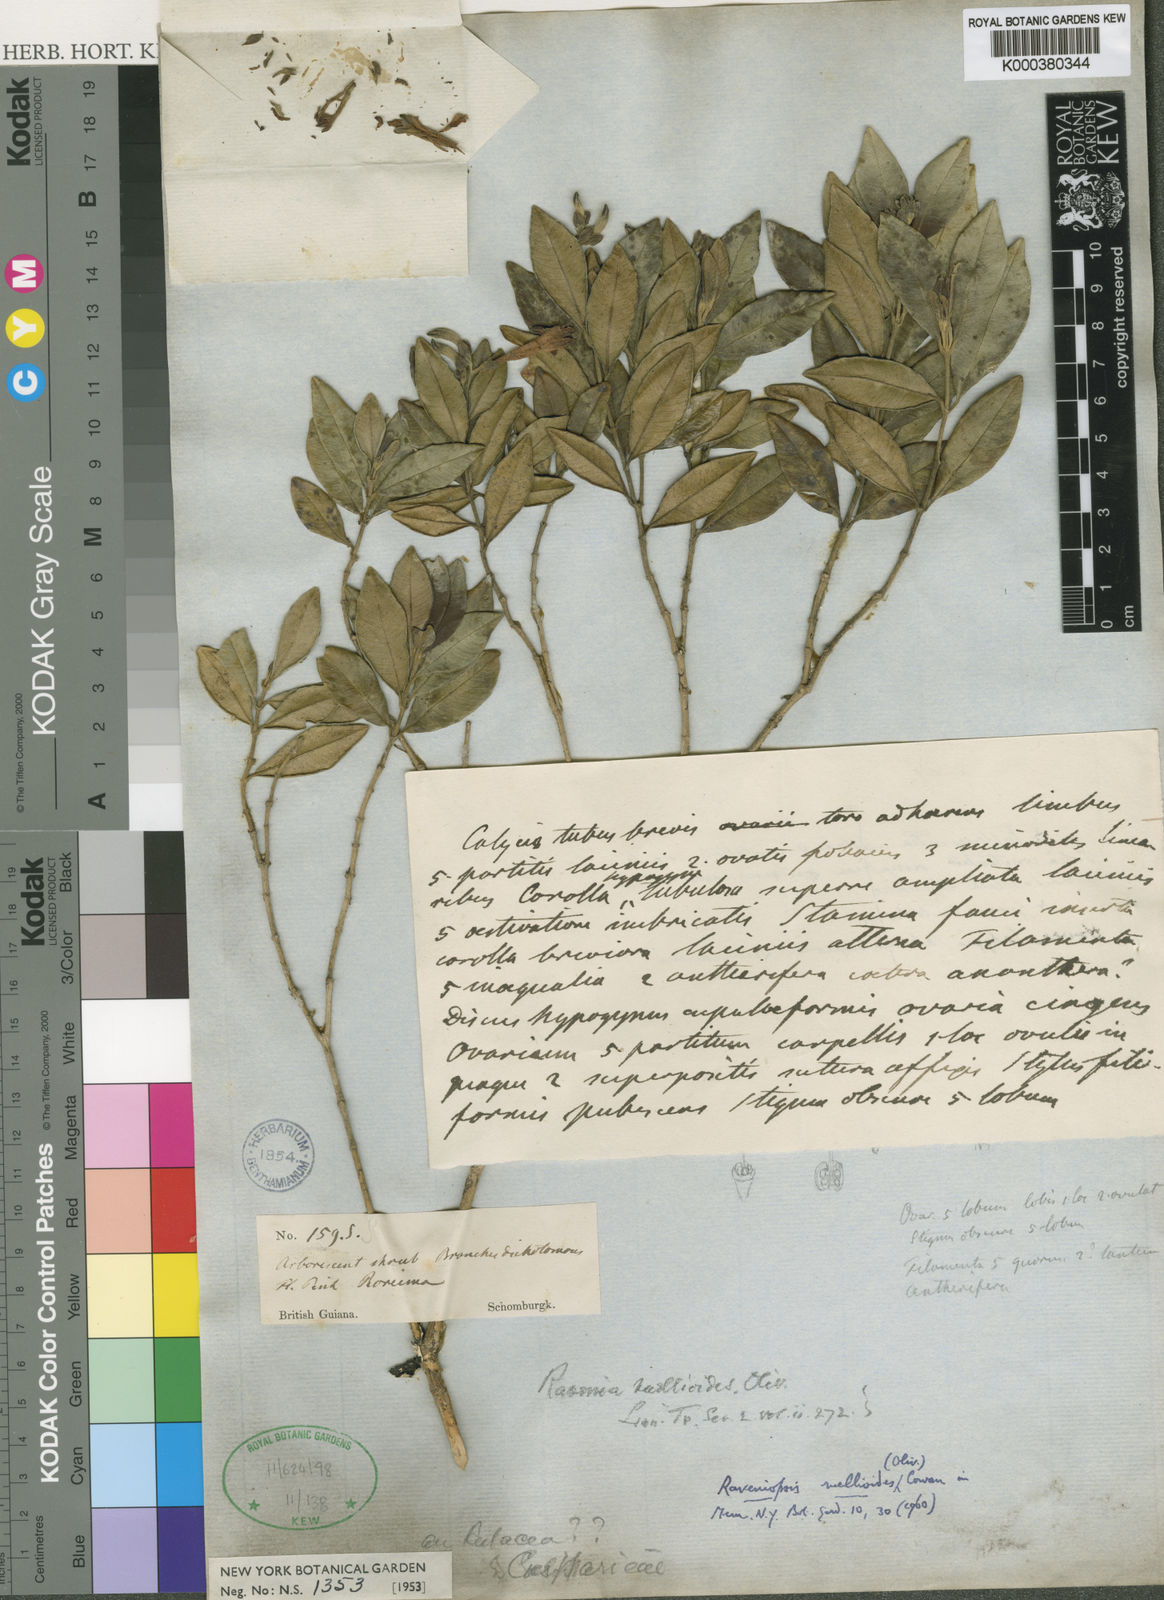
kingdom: Plantae
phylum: Tracheophyta
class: Magnoliopsida
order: Sapindales
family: Rutaceae
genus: Raveniopsis
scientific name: Raveniopsis ruellioides
